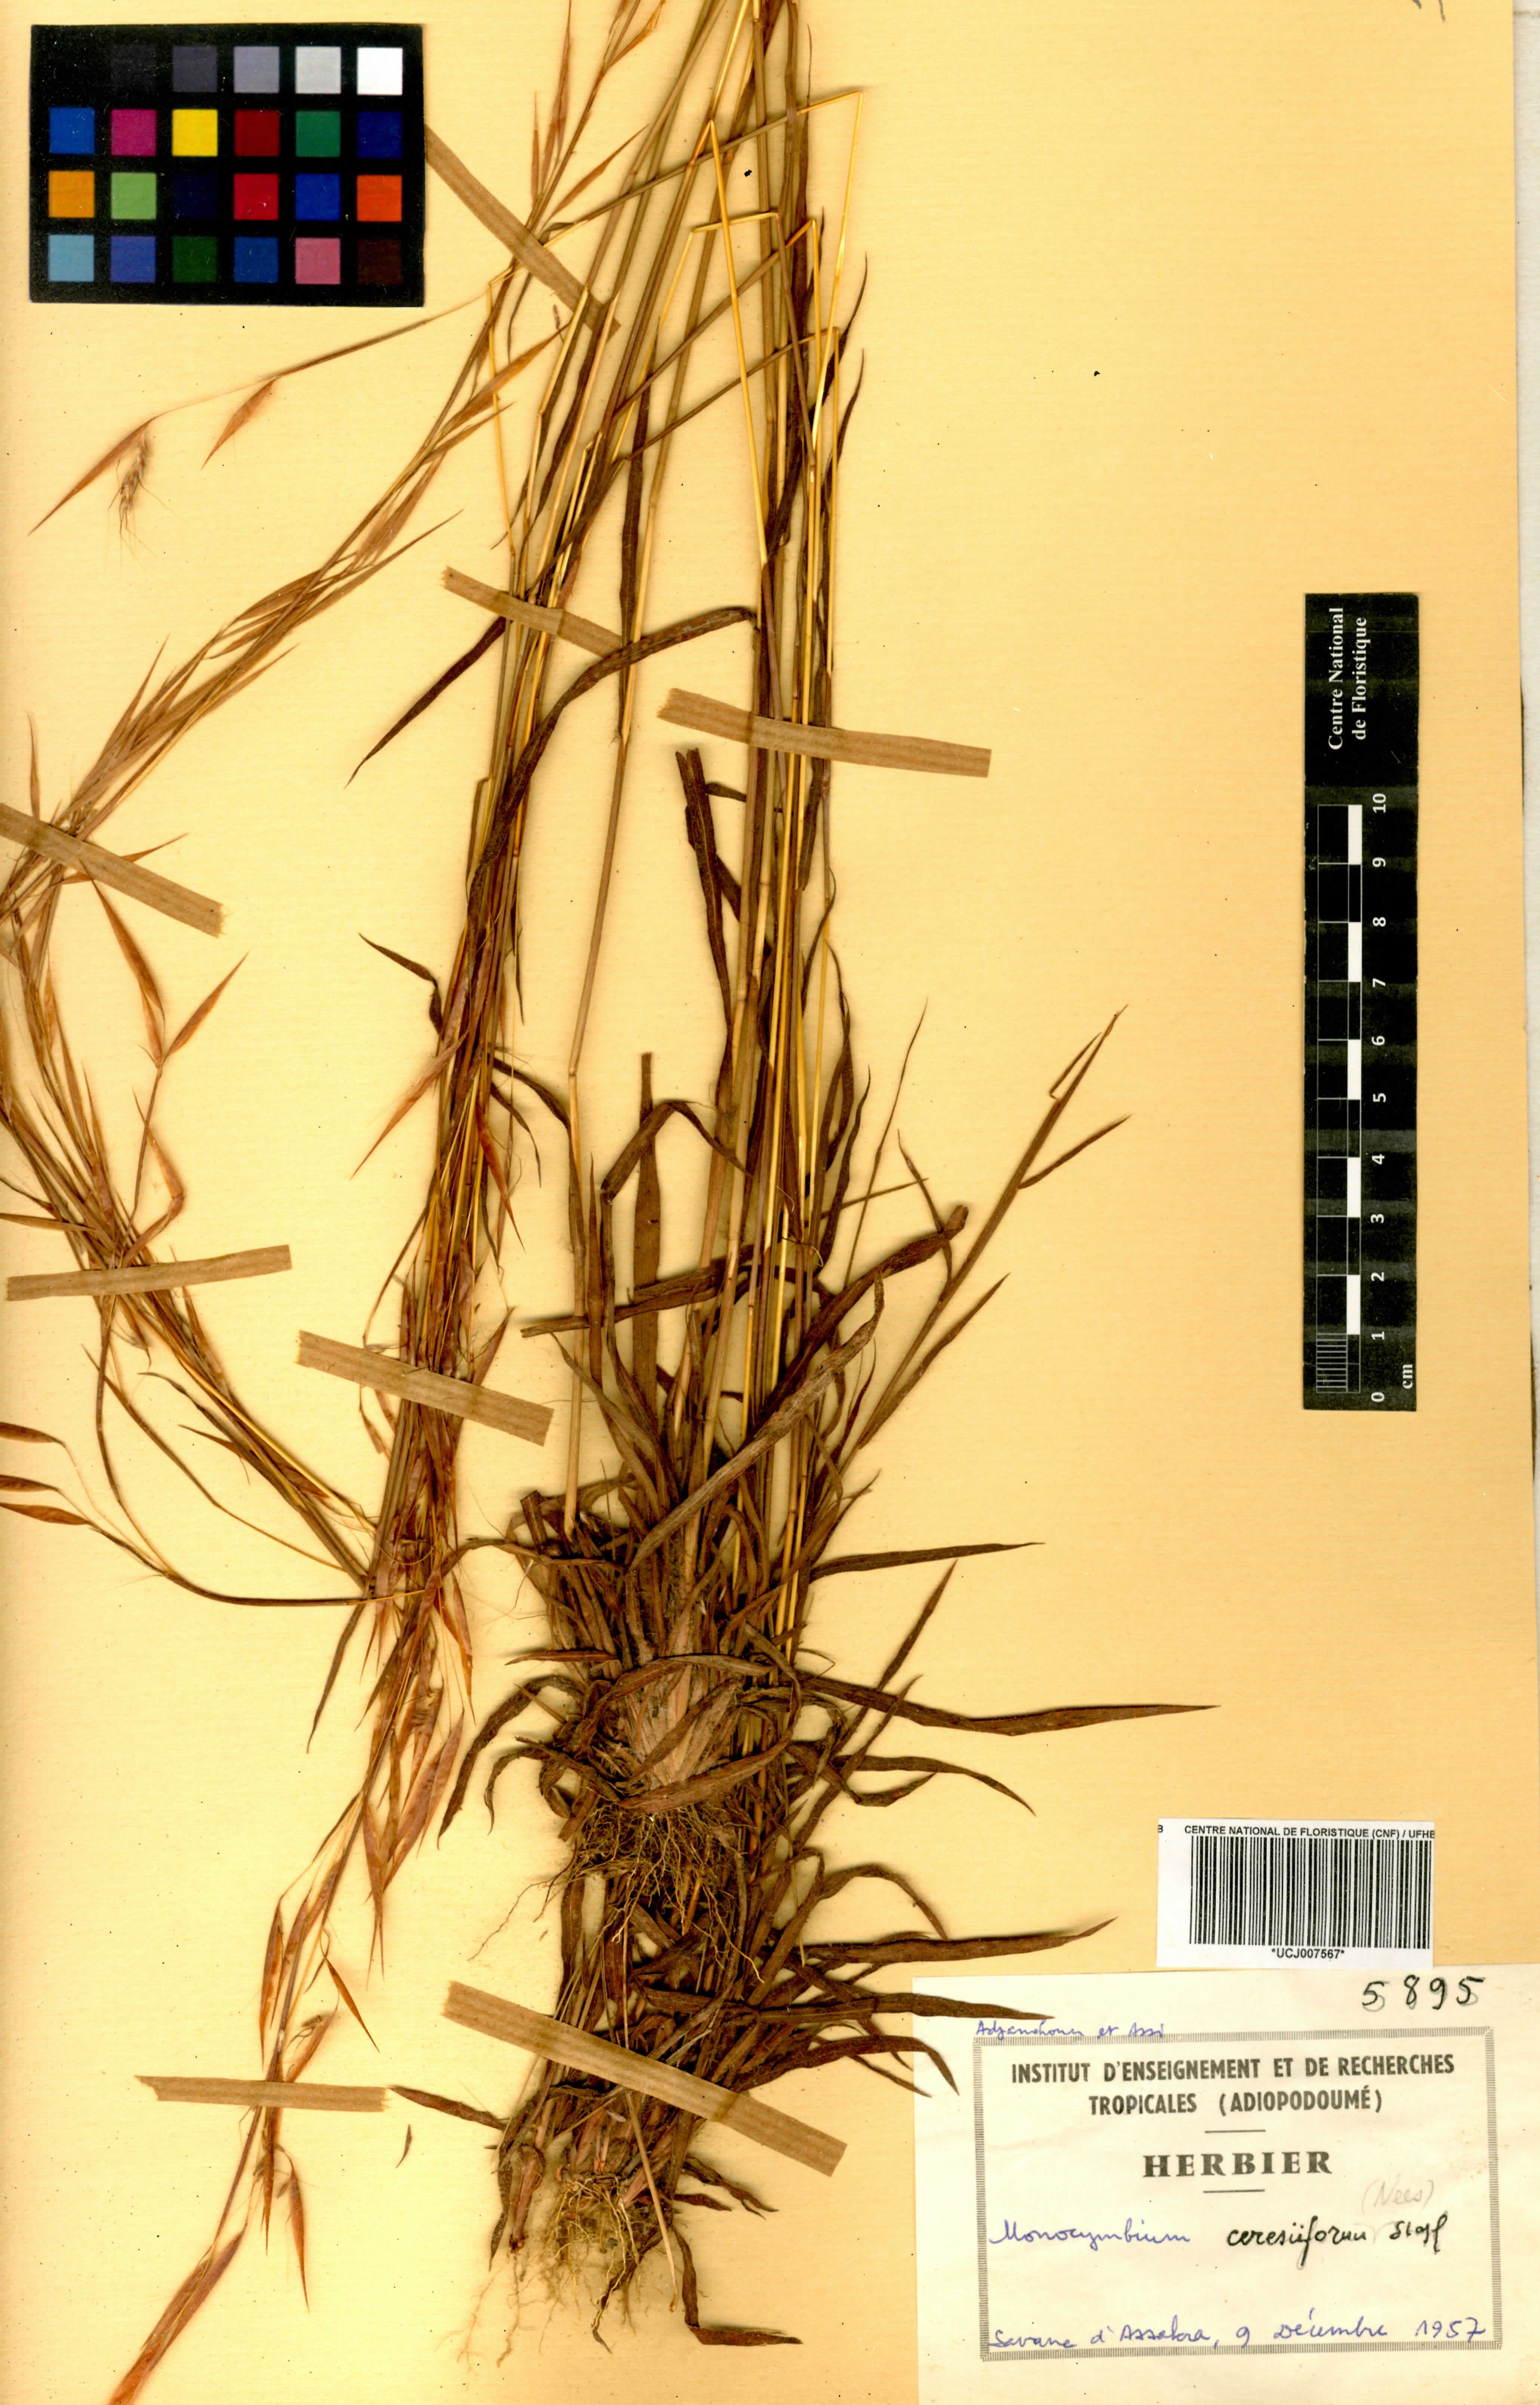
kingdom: Plantae
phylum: Tracheophyta
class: Liliopsida
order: Poales
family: Poaceae
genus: Monocymbium
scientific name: Monocymbium ceresiiforme
